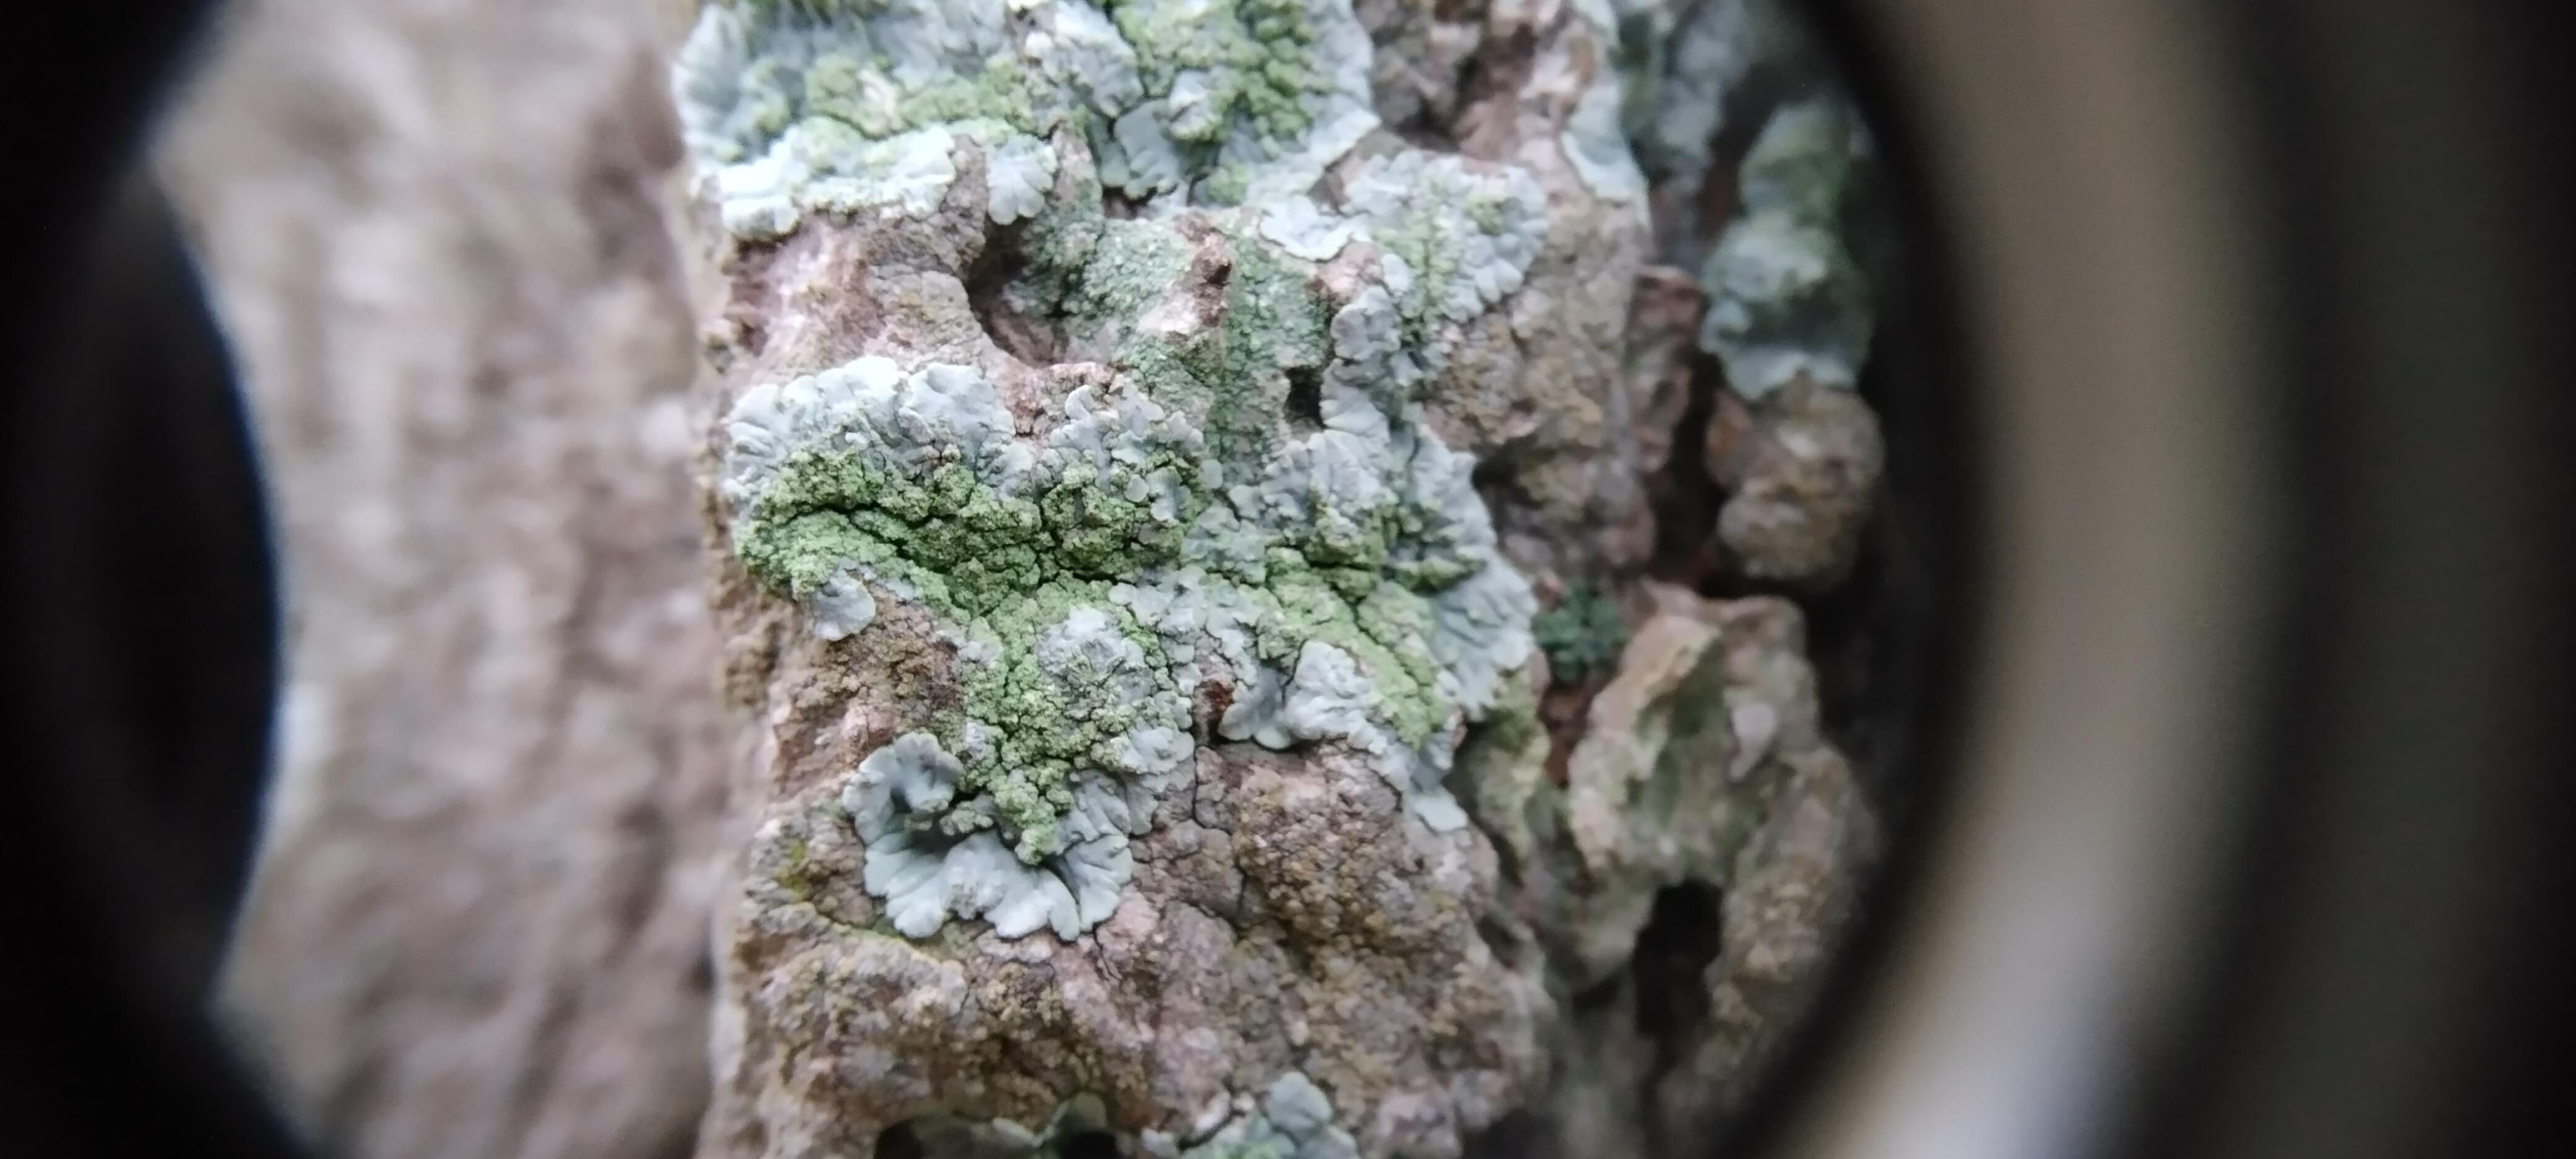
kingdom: Fungi
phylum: Ascomycota
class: Lecanoromycetes
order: Caliciales
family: Caliciaceae
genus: Diploicia
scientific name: Diploicia canescens
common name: grå støvrosetlav
